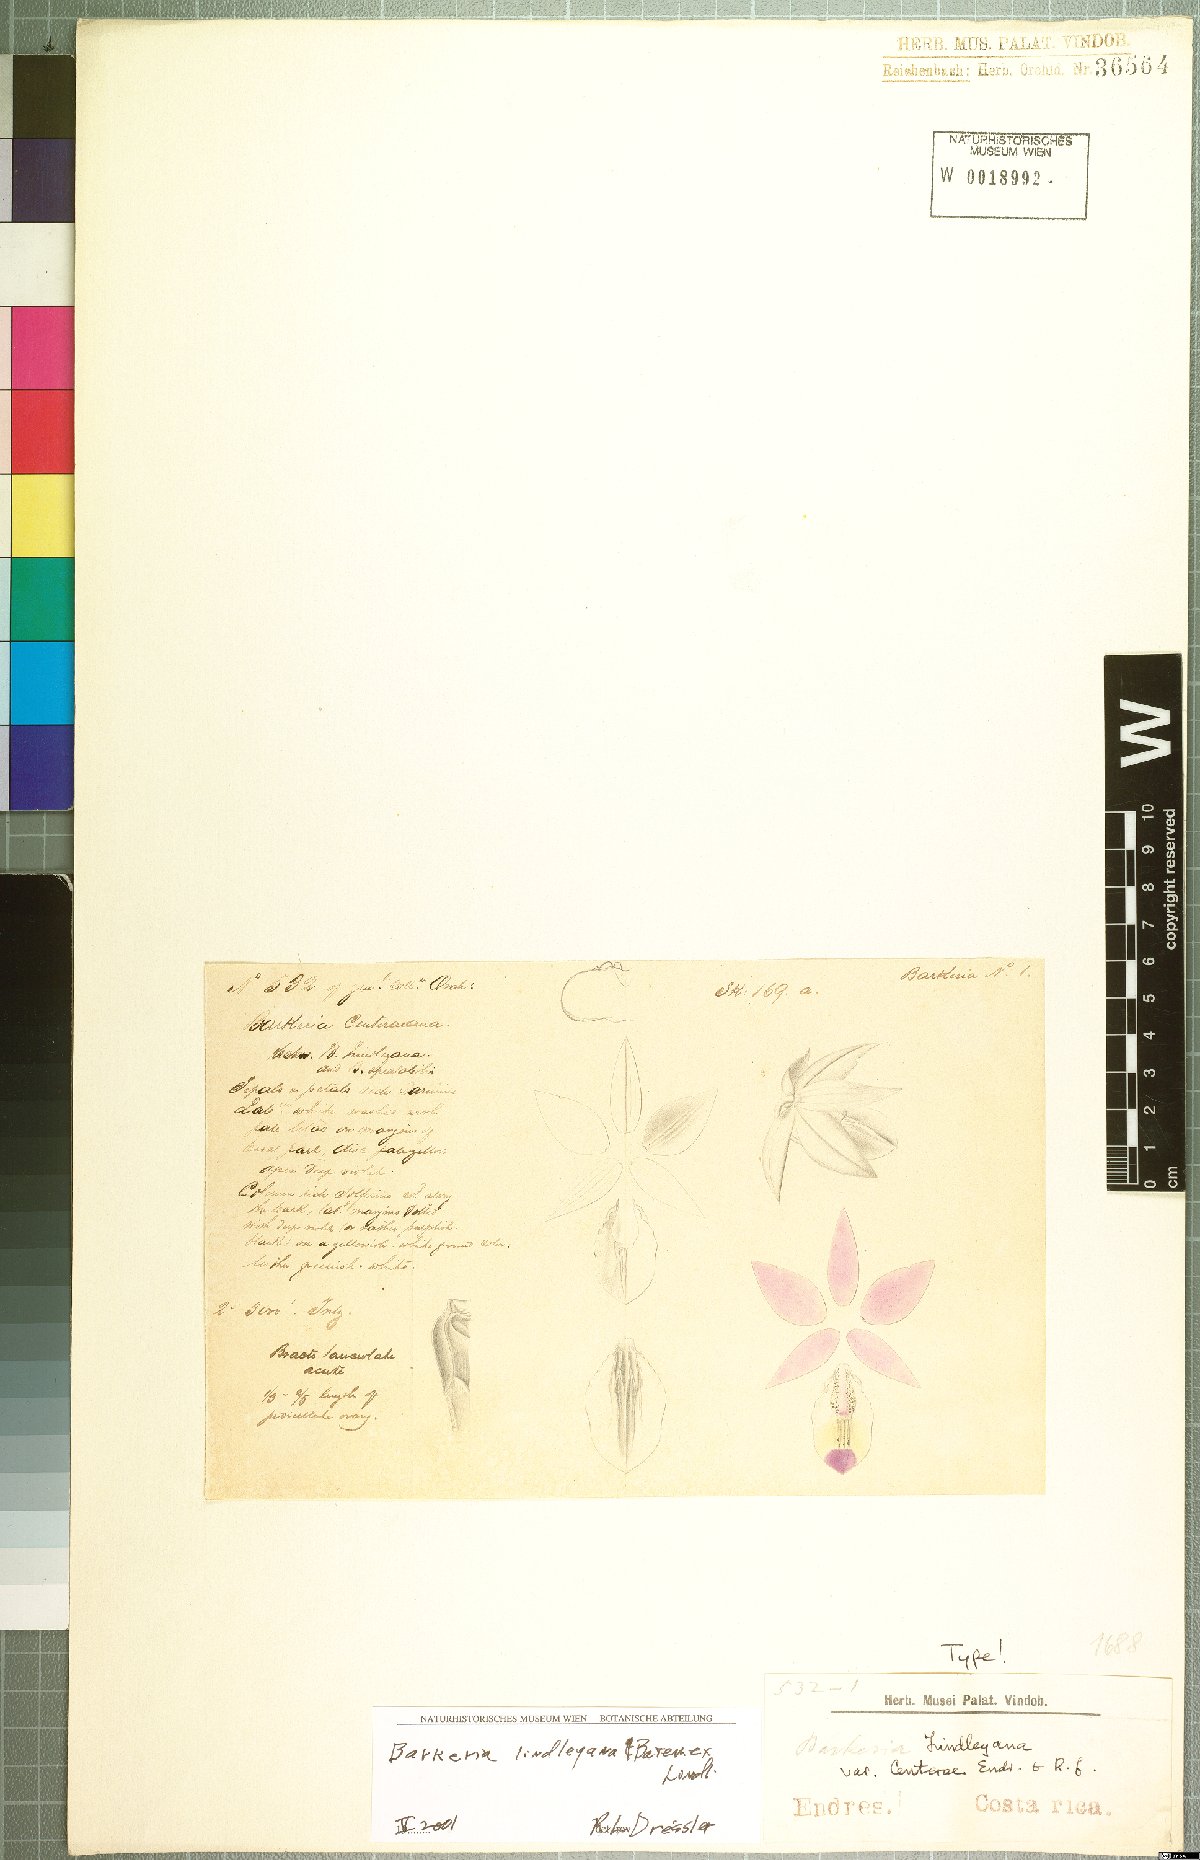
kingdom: Plantae
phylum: Tracheophyta
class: Liliopsida
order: Asparagales
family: Orchidaceae
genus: Barkeria
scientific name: Barkeria lindleyana
